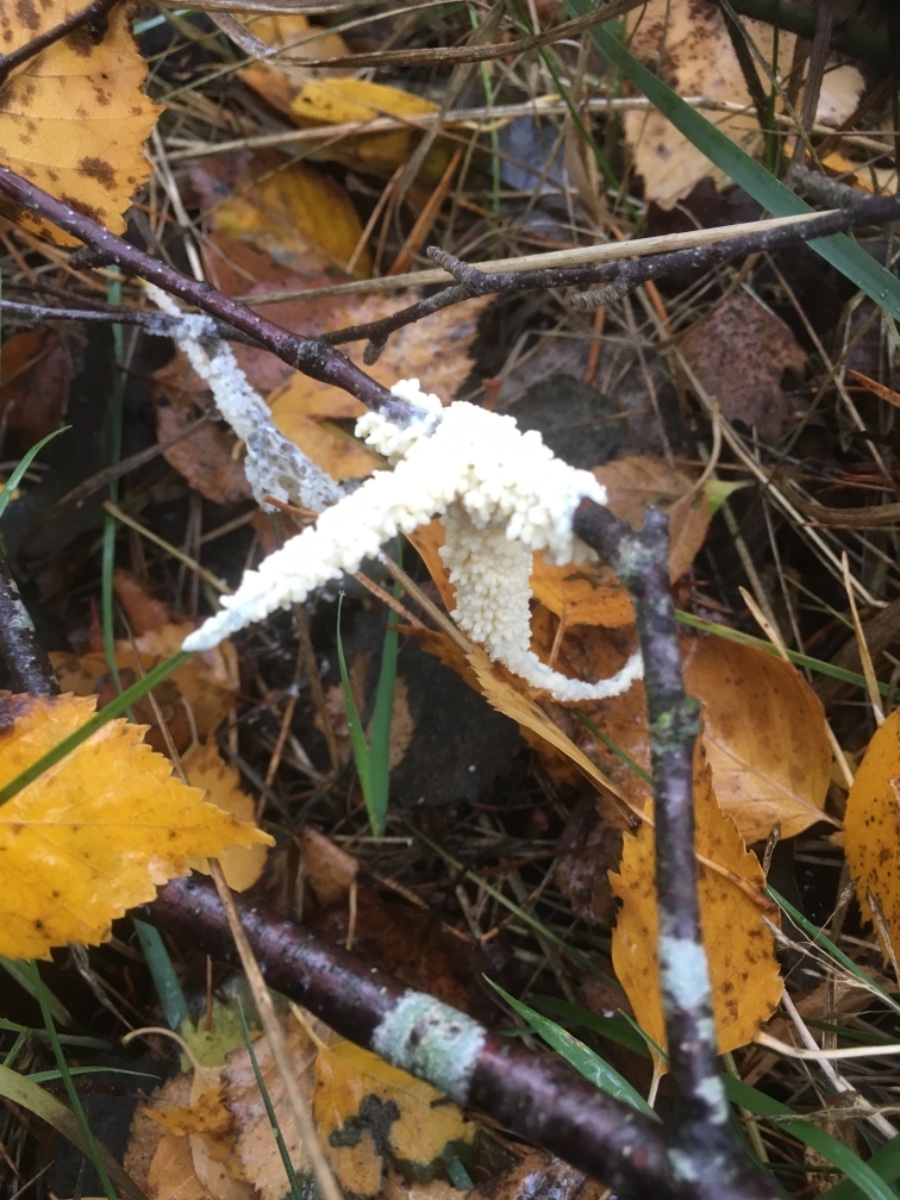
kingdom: Protozoa
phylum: Mycetozoa
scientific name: Mycetozoa
